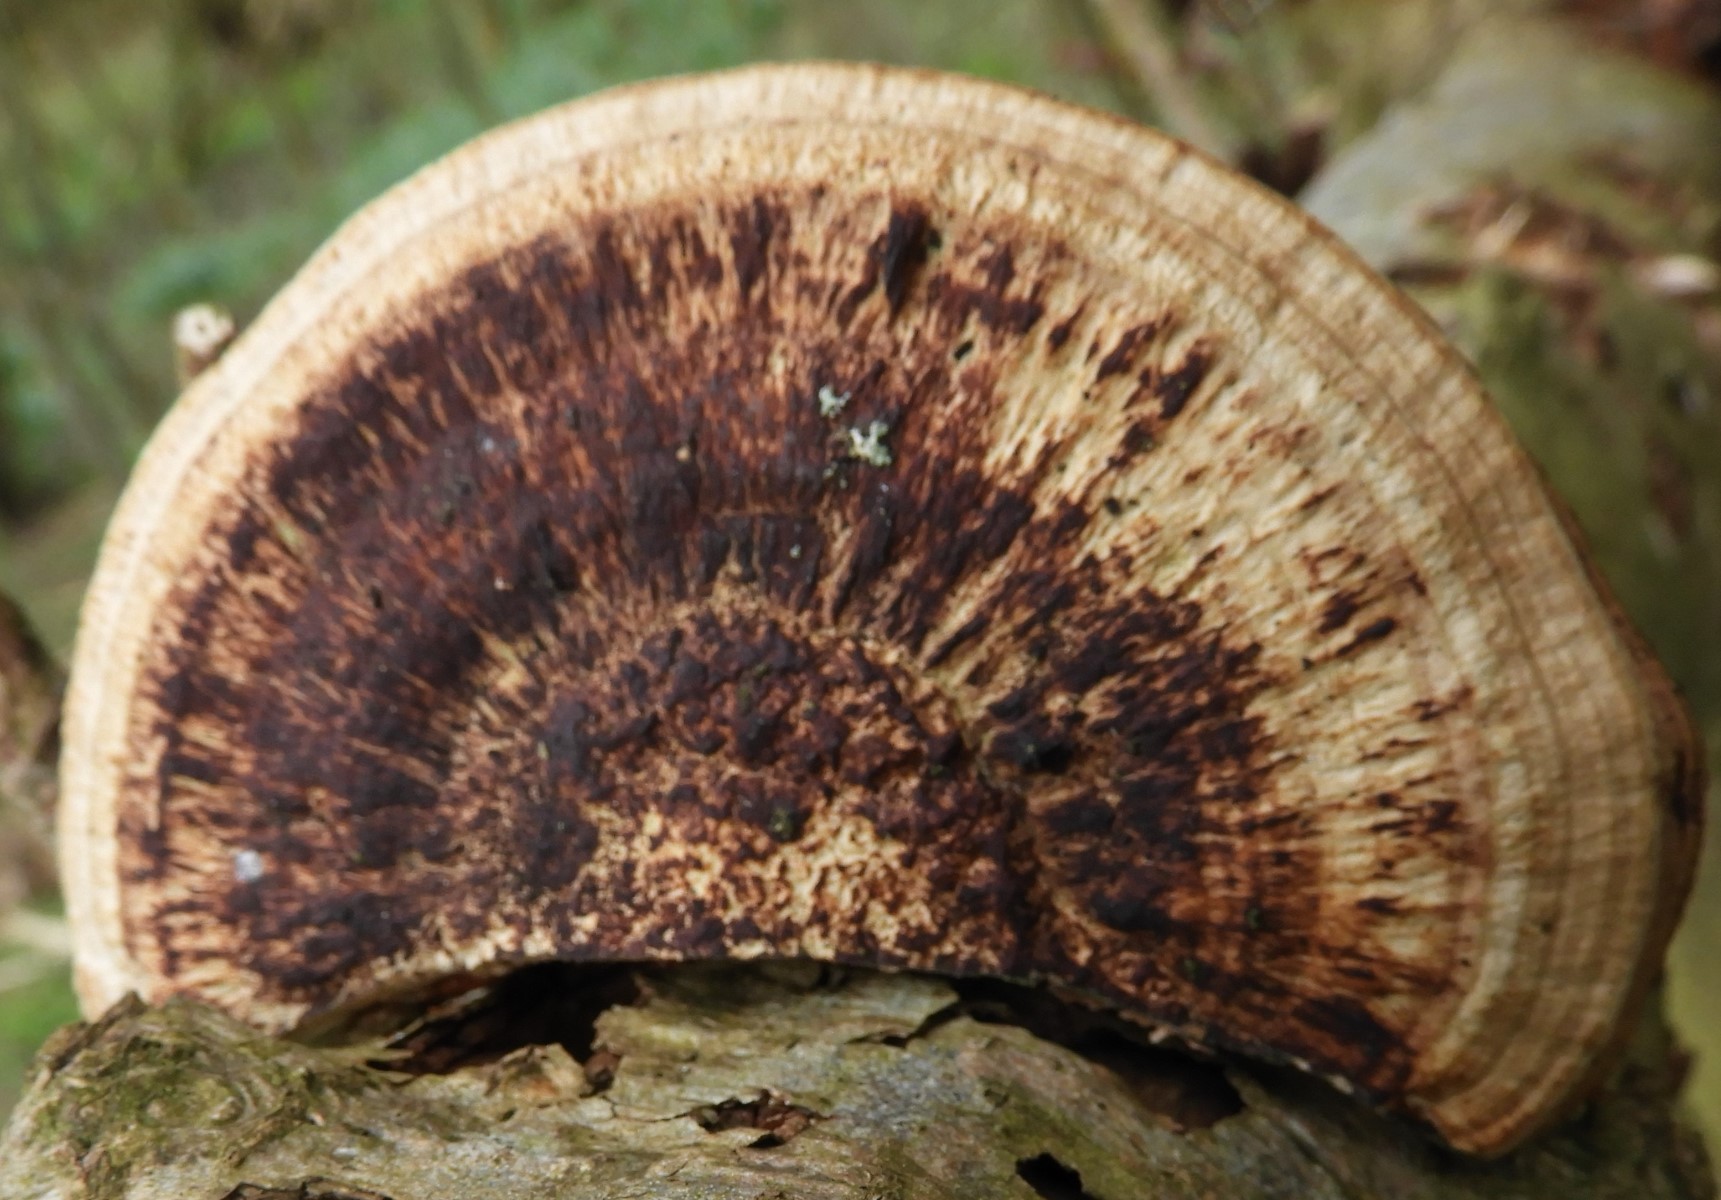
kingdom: Fungi
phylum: Basidiomycota
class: Agaricomycetes
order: Polyporales
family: Polyporaceae
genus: Daedaleopsis
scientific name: Daedaleopsis confragosa
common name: rødmende læderporesvamp
